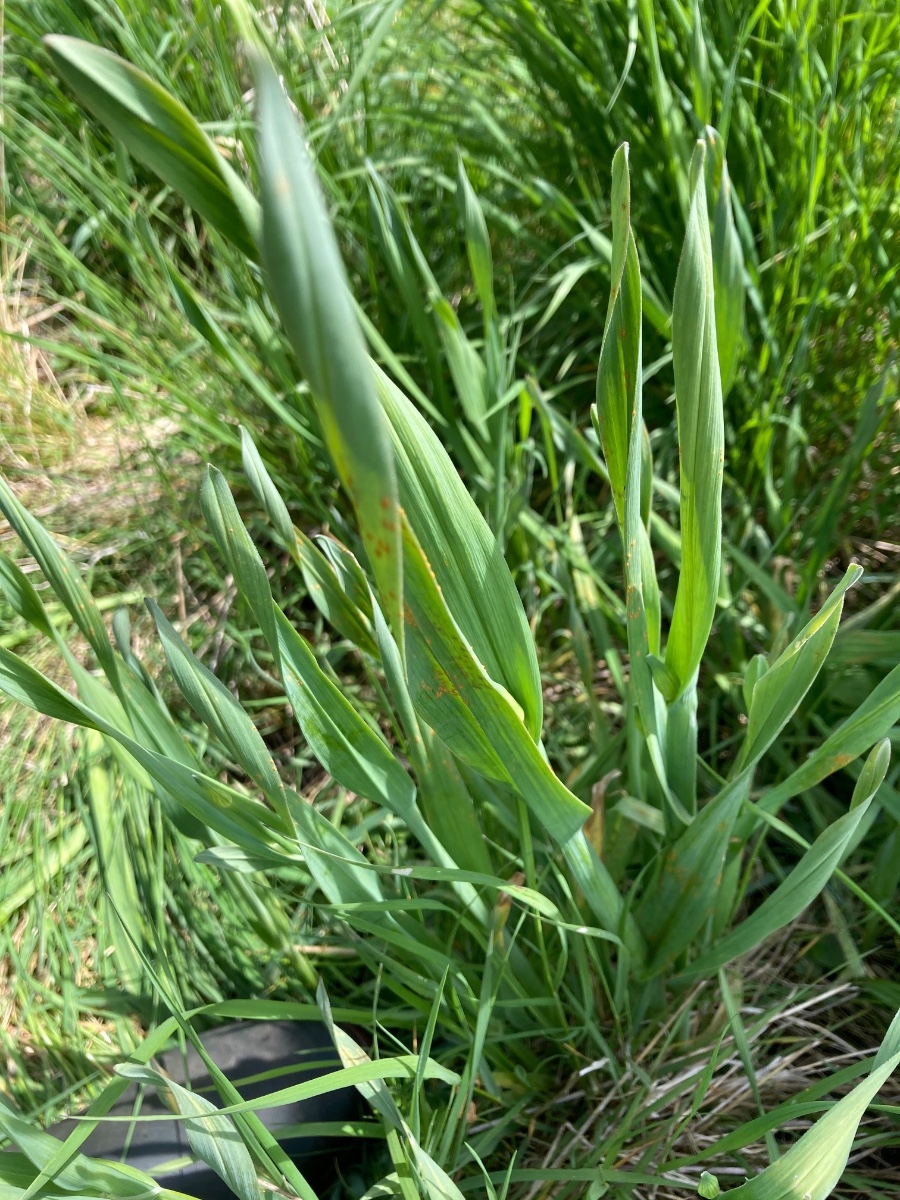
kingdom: Fungi
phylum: Basidiomycota
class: Pucciniomycetes
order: Pucciniales
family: Pucciniaceae
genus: Puccinia
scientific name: Puccinia porri
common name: Allium rust
